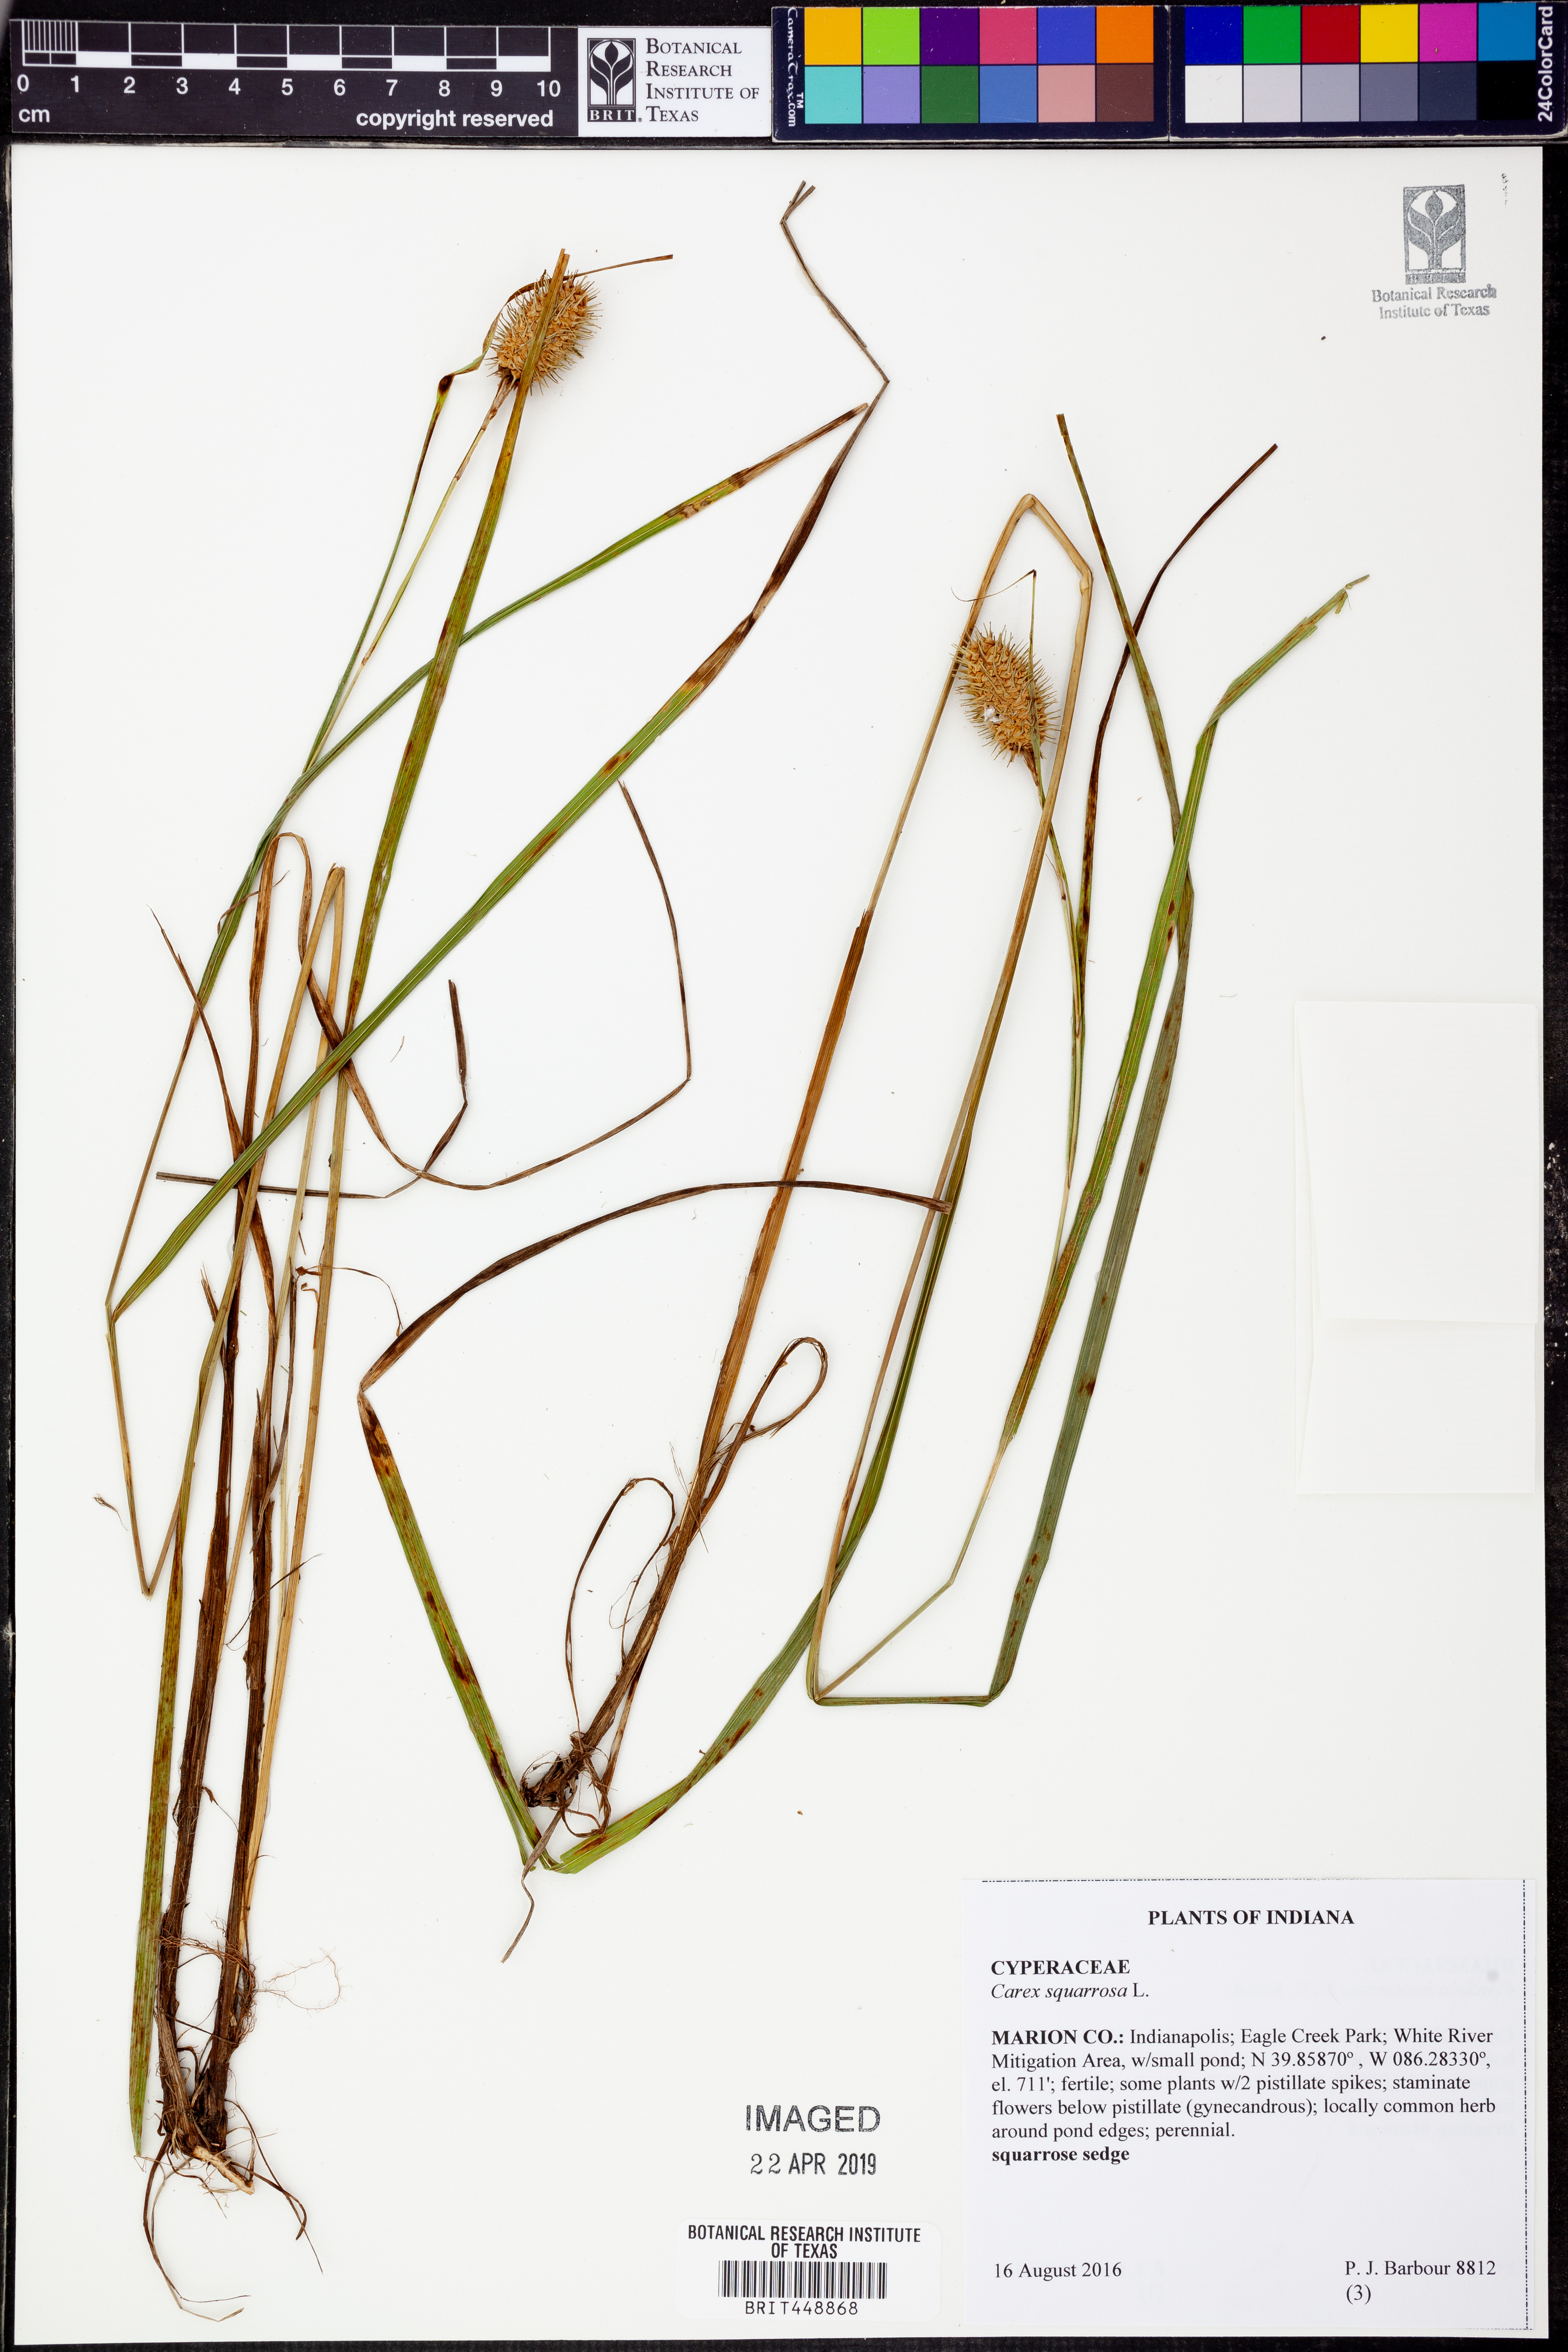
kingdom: Plantae
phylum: Tracheophyta
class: Liliopsida
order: Poales
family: Cyperaceae
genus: Carex
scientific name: Carex squarrosa
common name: Narrow-leaved cattail sedge
